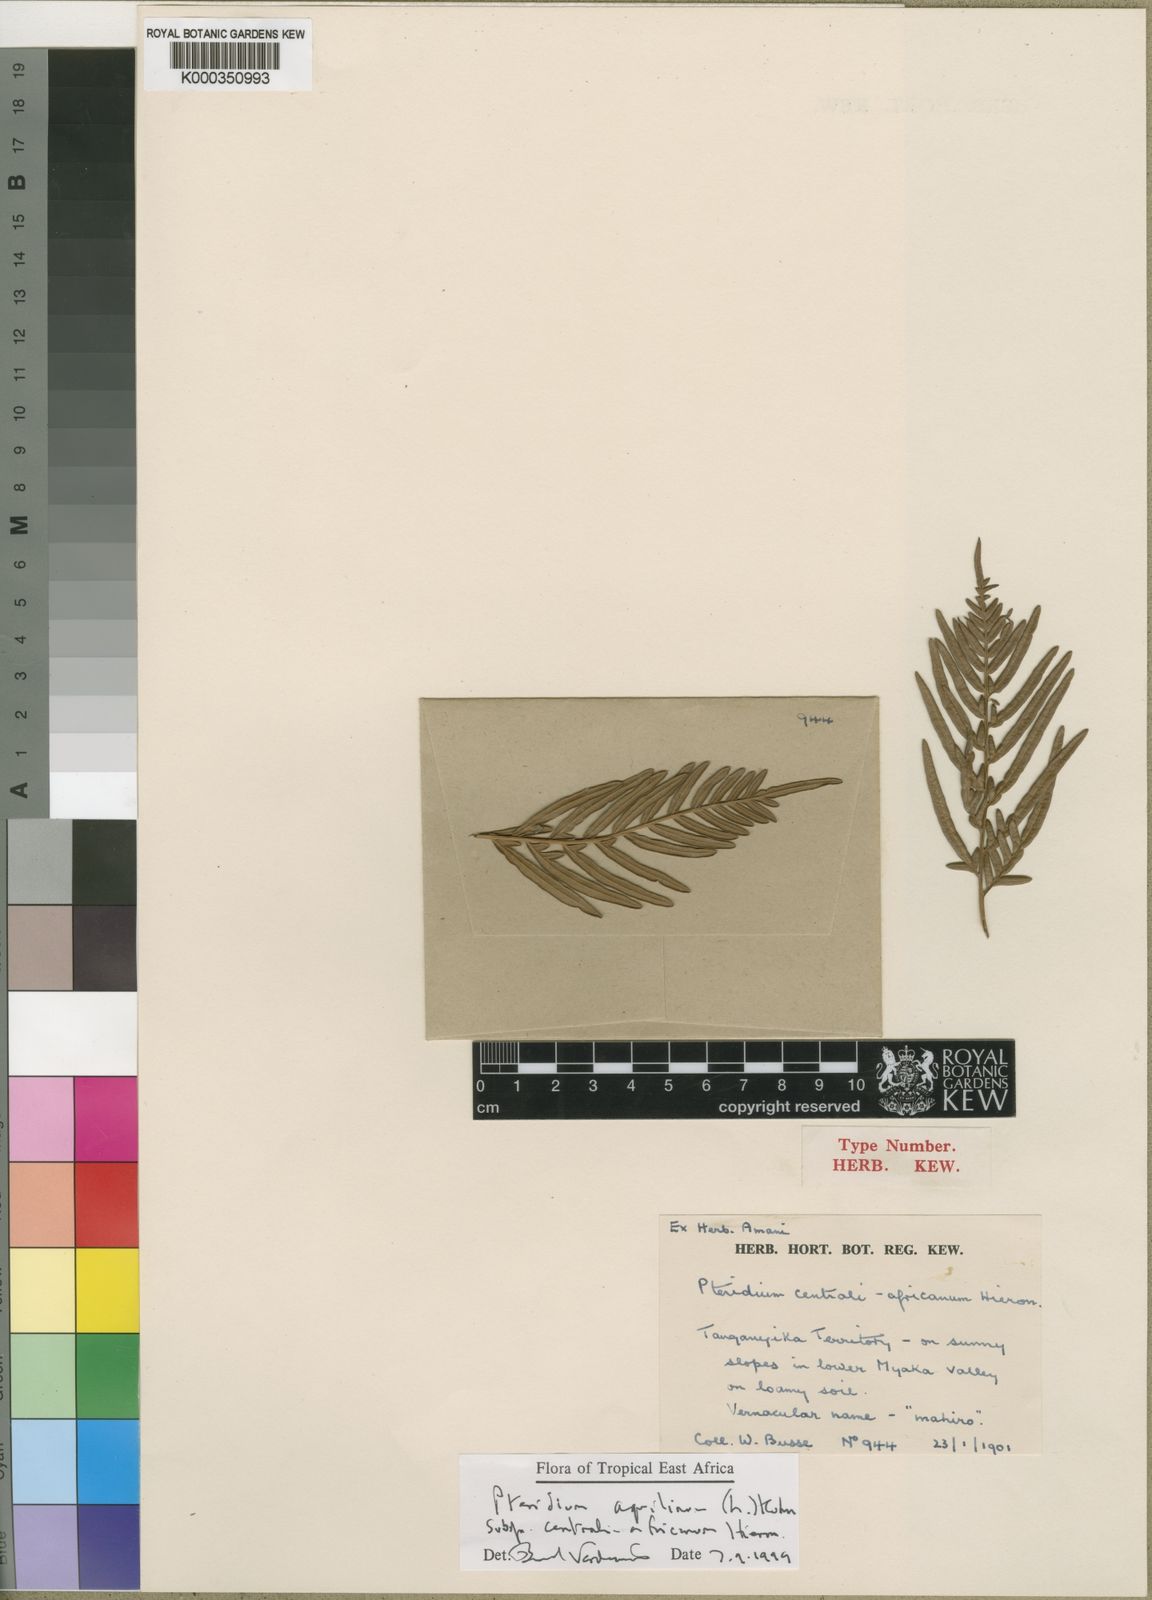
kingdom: Plantae
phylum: Tracheophyta
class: Polypodiopsida
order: Polypodiales
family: Dennstaedtiaceae
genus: Pteridium
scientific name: Pteridium aquilinum
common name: Bracken
